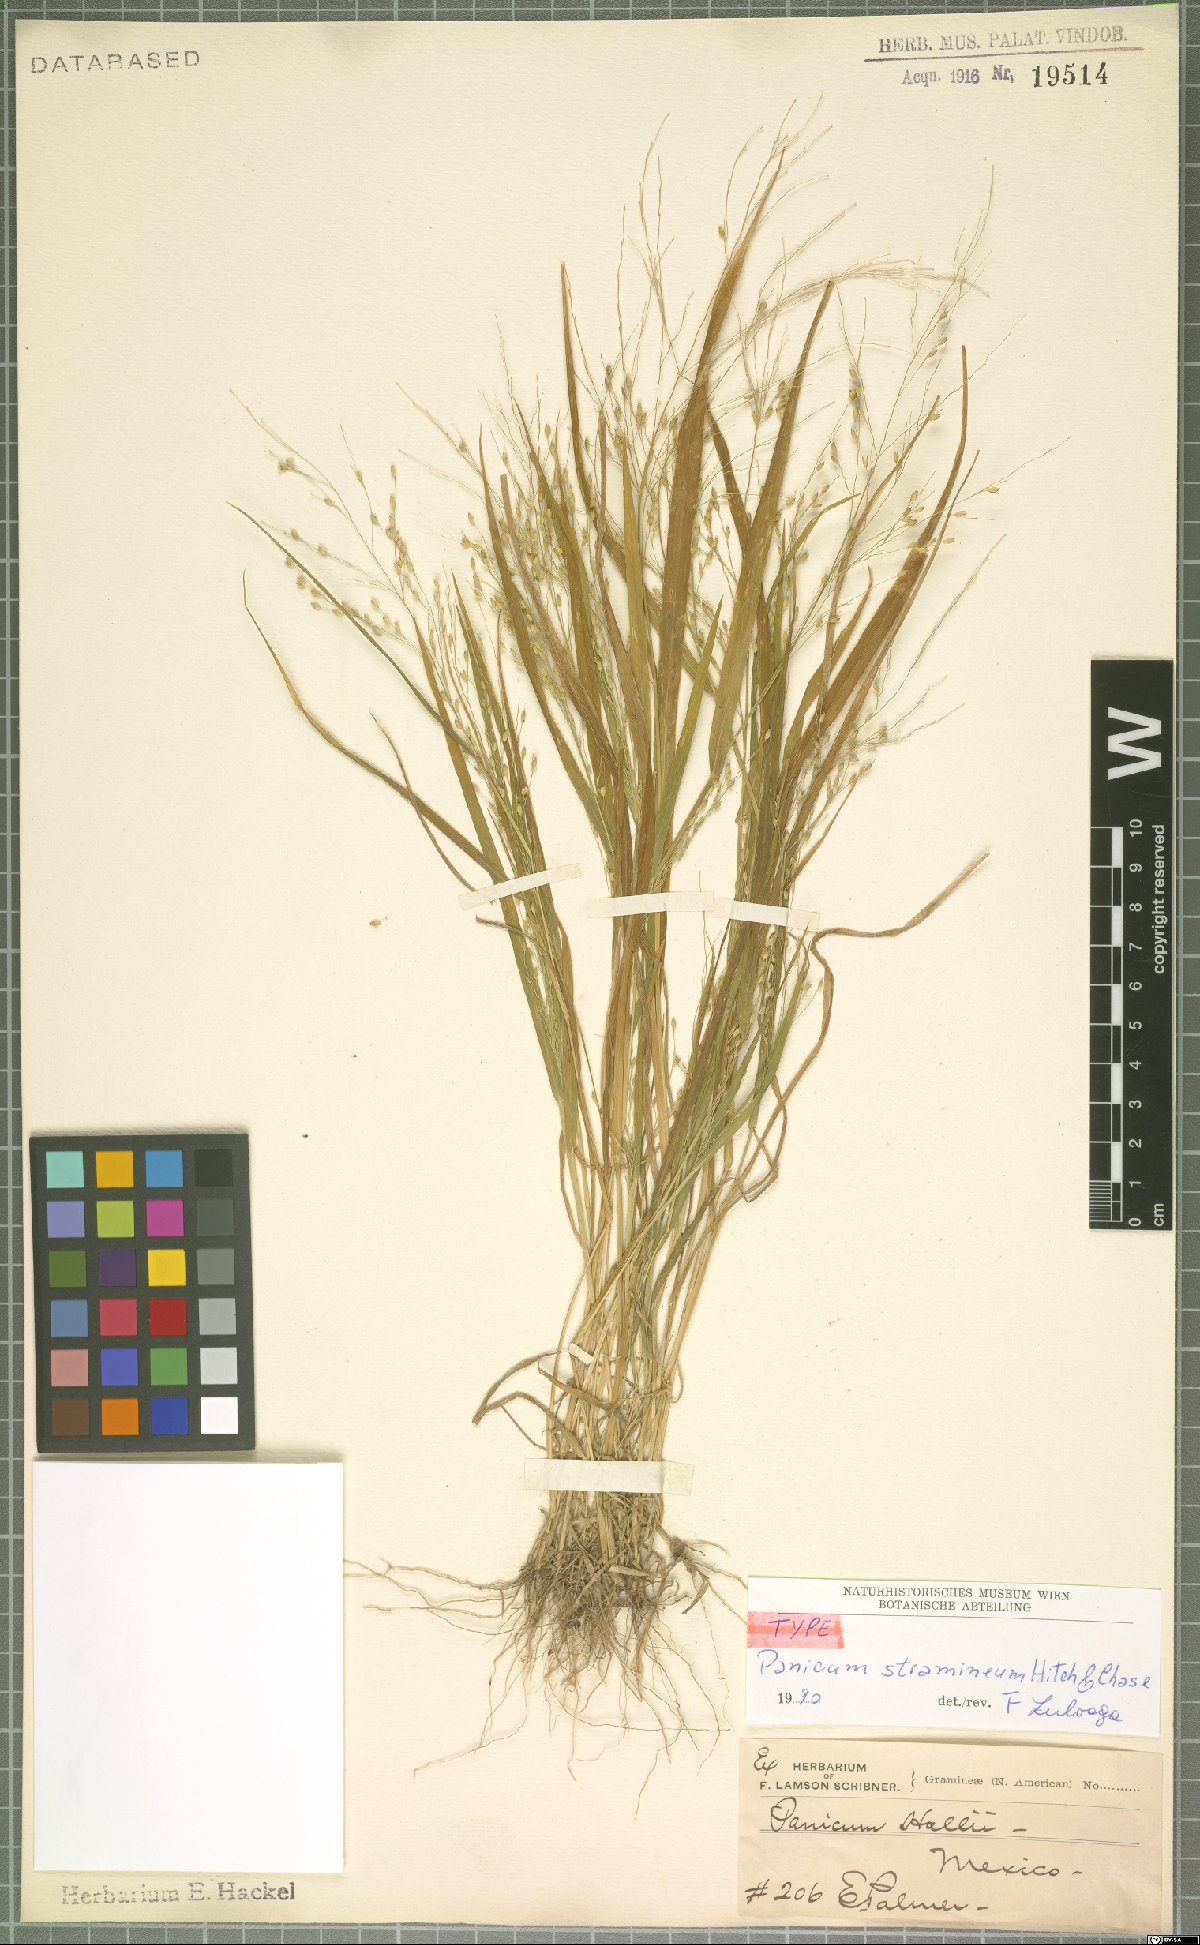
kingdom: Plantae
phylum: Tracheophyta
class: Liliopsida
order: Poales
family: Poaceae
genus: Panicum
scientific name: Panicum stramineum
